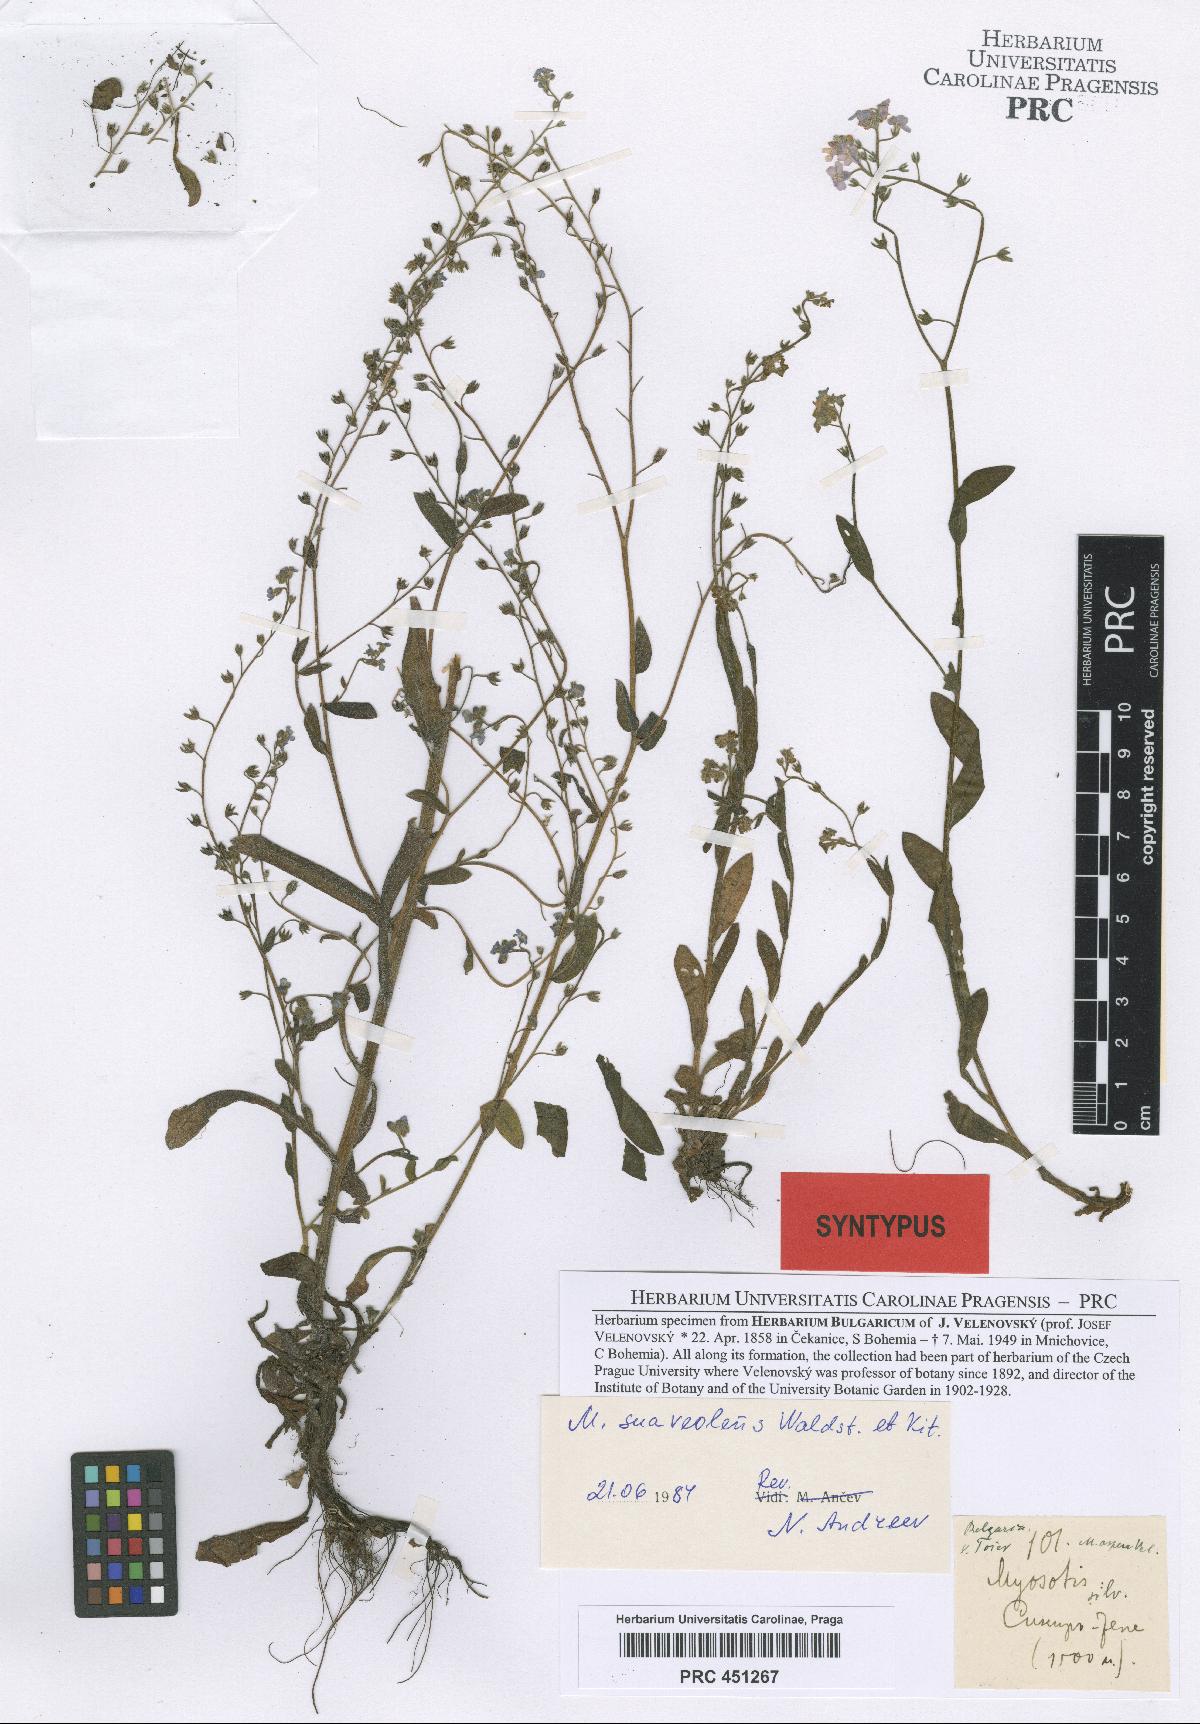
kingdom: Plantae
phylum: Tracheophyta
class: Magnoliopsida
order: Boraginales
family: Boraginaceae
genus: Myosotis
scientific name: Myosotis alpestris
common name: Alpine forget-me-not
